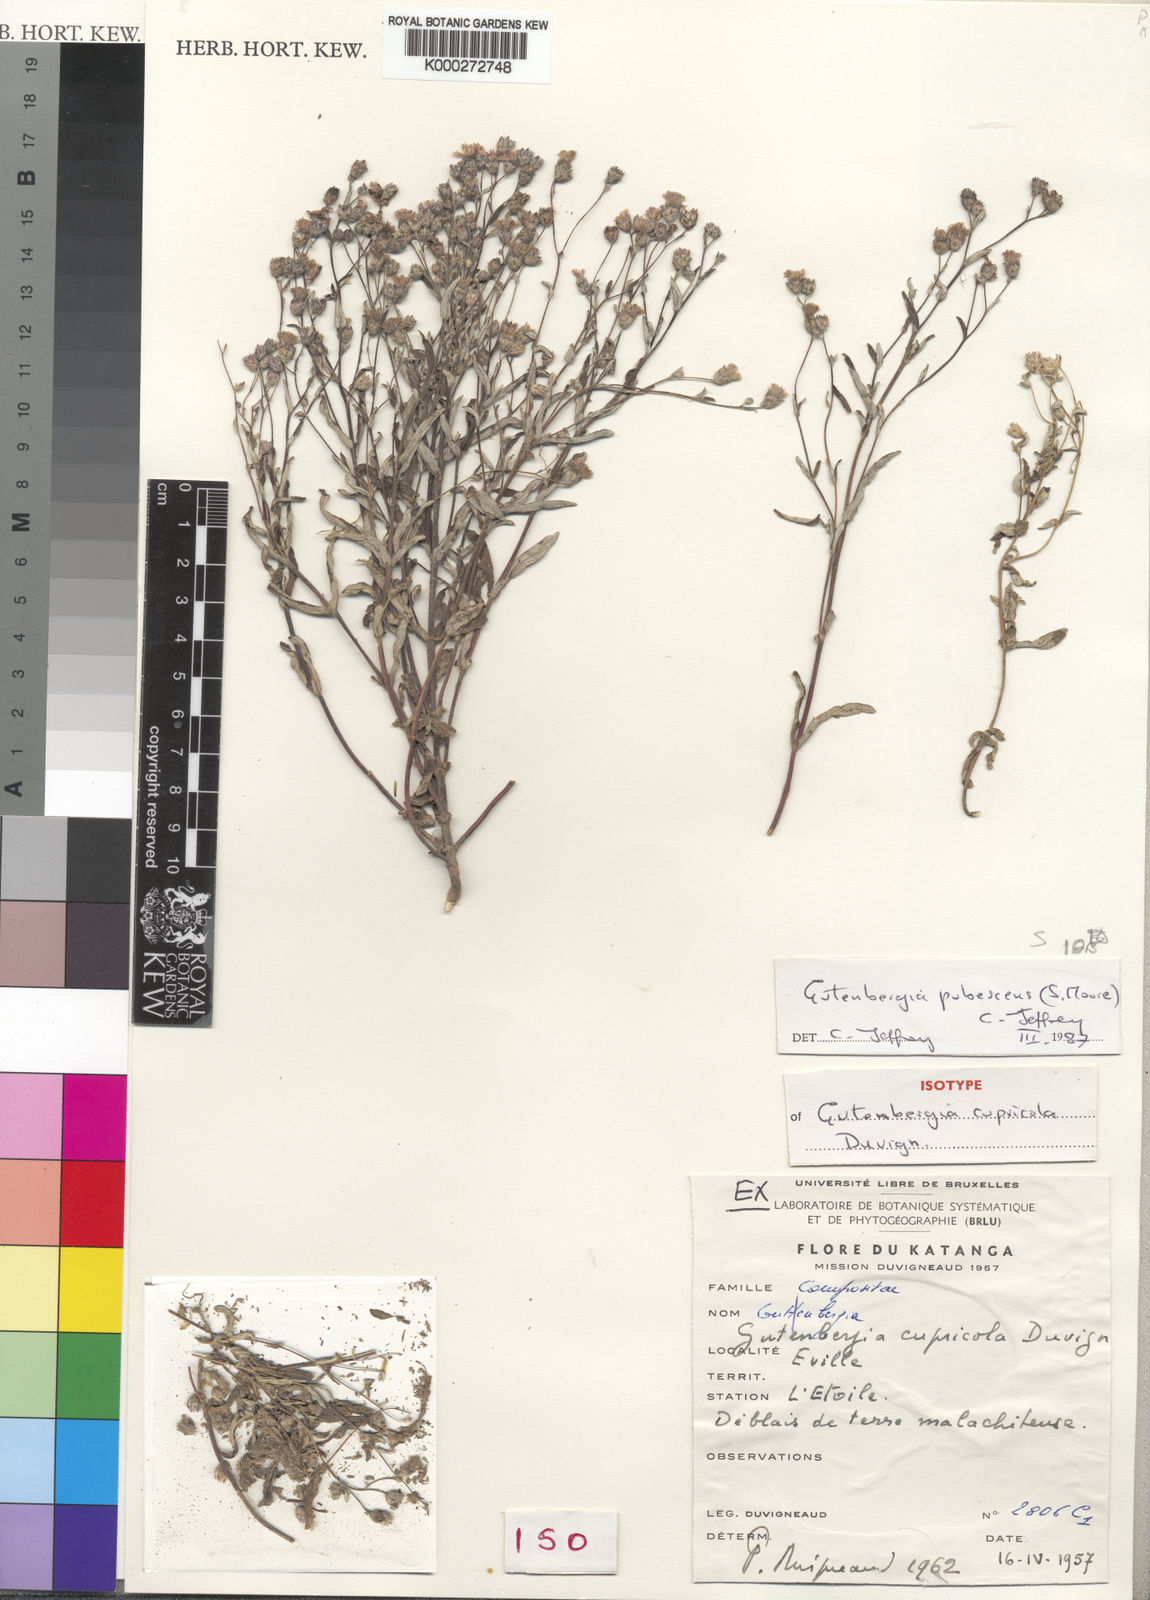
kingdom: Plantae
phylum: Tracheophyta
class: Magnoliopsida
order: Asterales
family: Asteraceae
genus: Gutenbergia
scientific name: Gutenbergia pubescens
